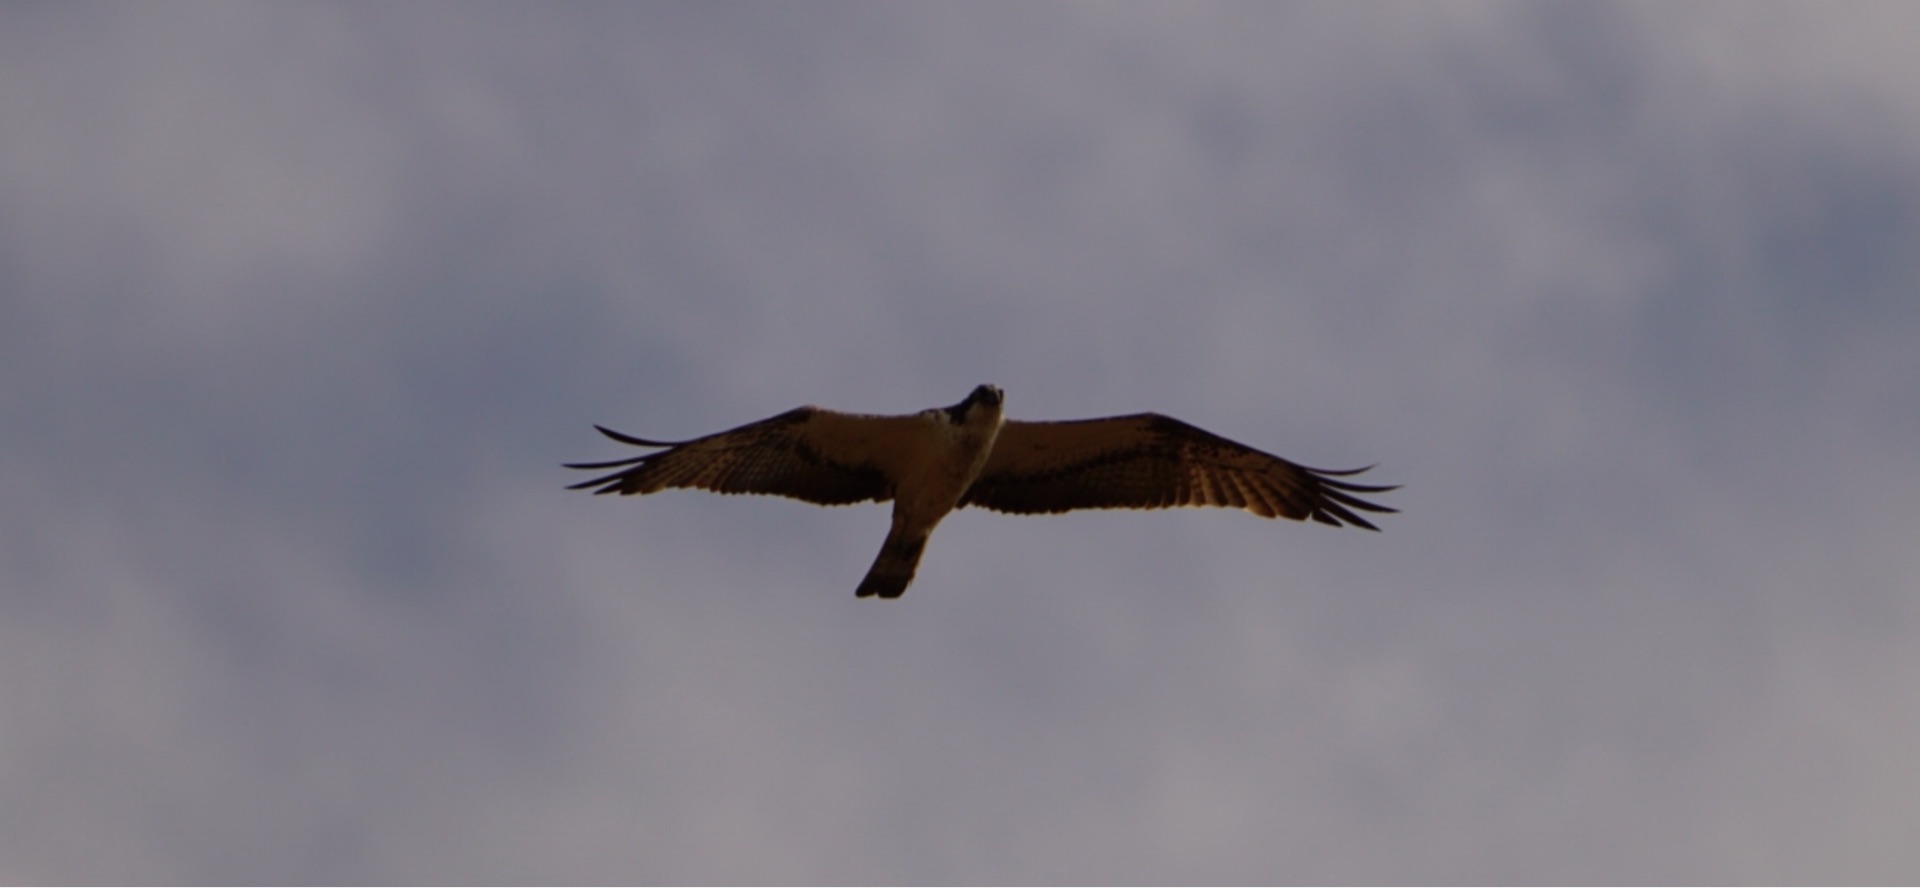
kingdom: Animalia
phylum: Chordata
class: Aves
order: Accipitriformes
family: Pandionidae
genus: Pandion
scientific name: Pandion haliaetus
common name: Fiskeørn
